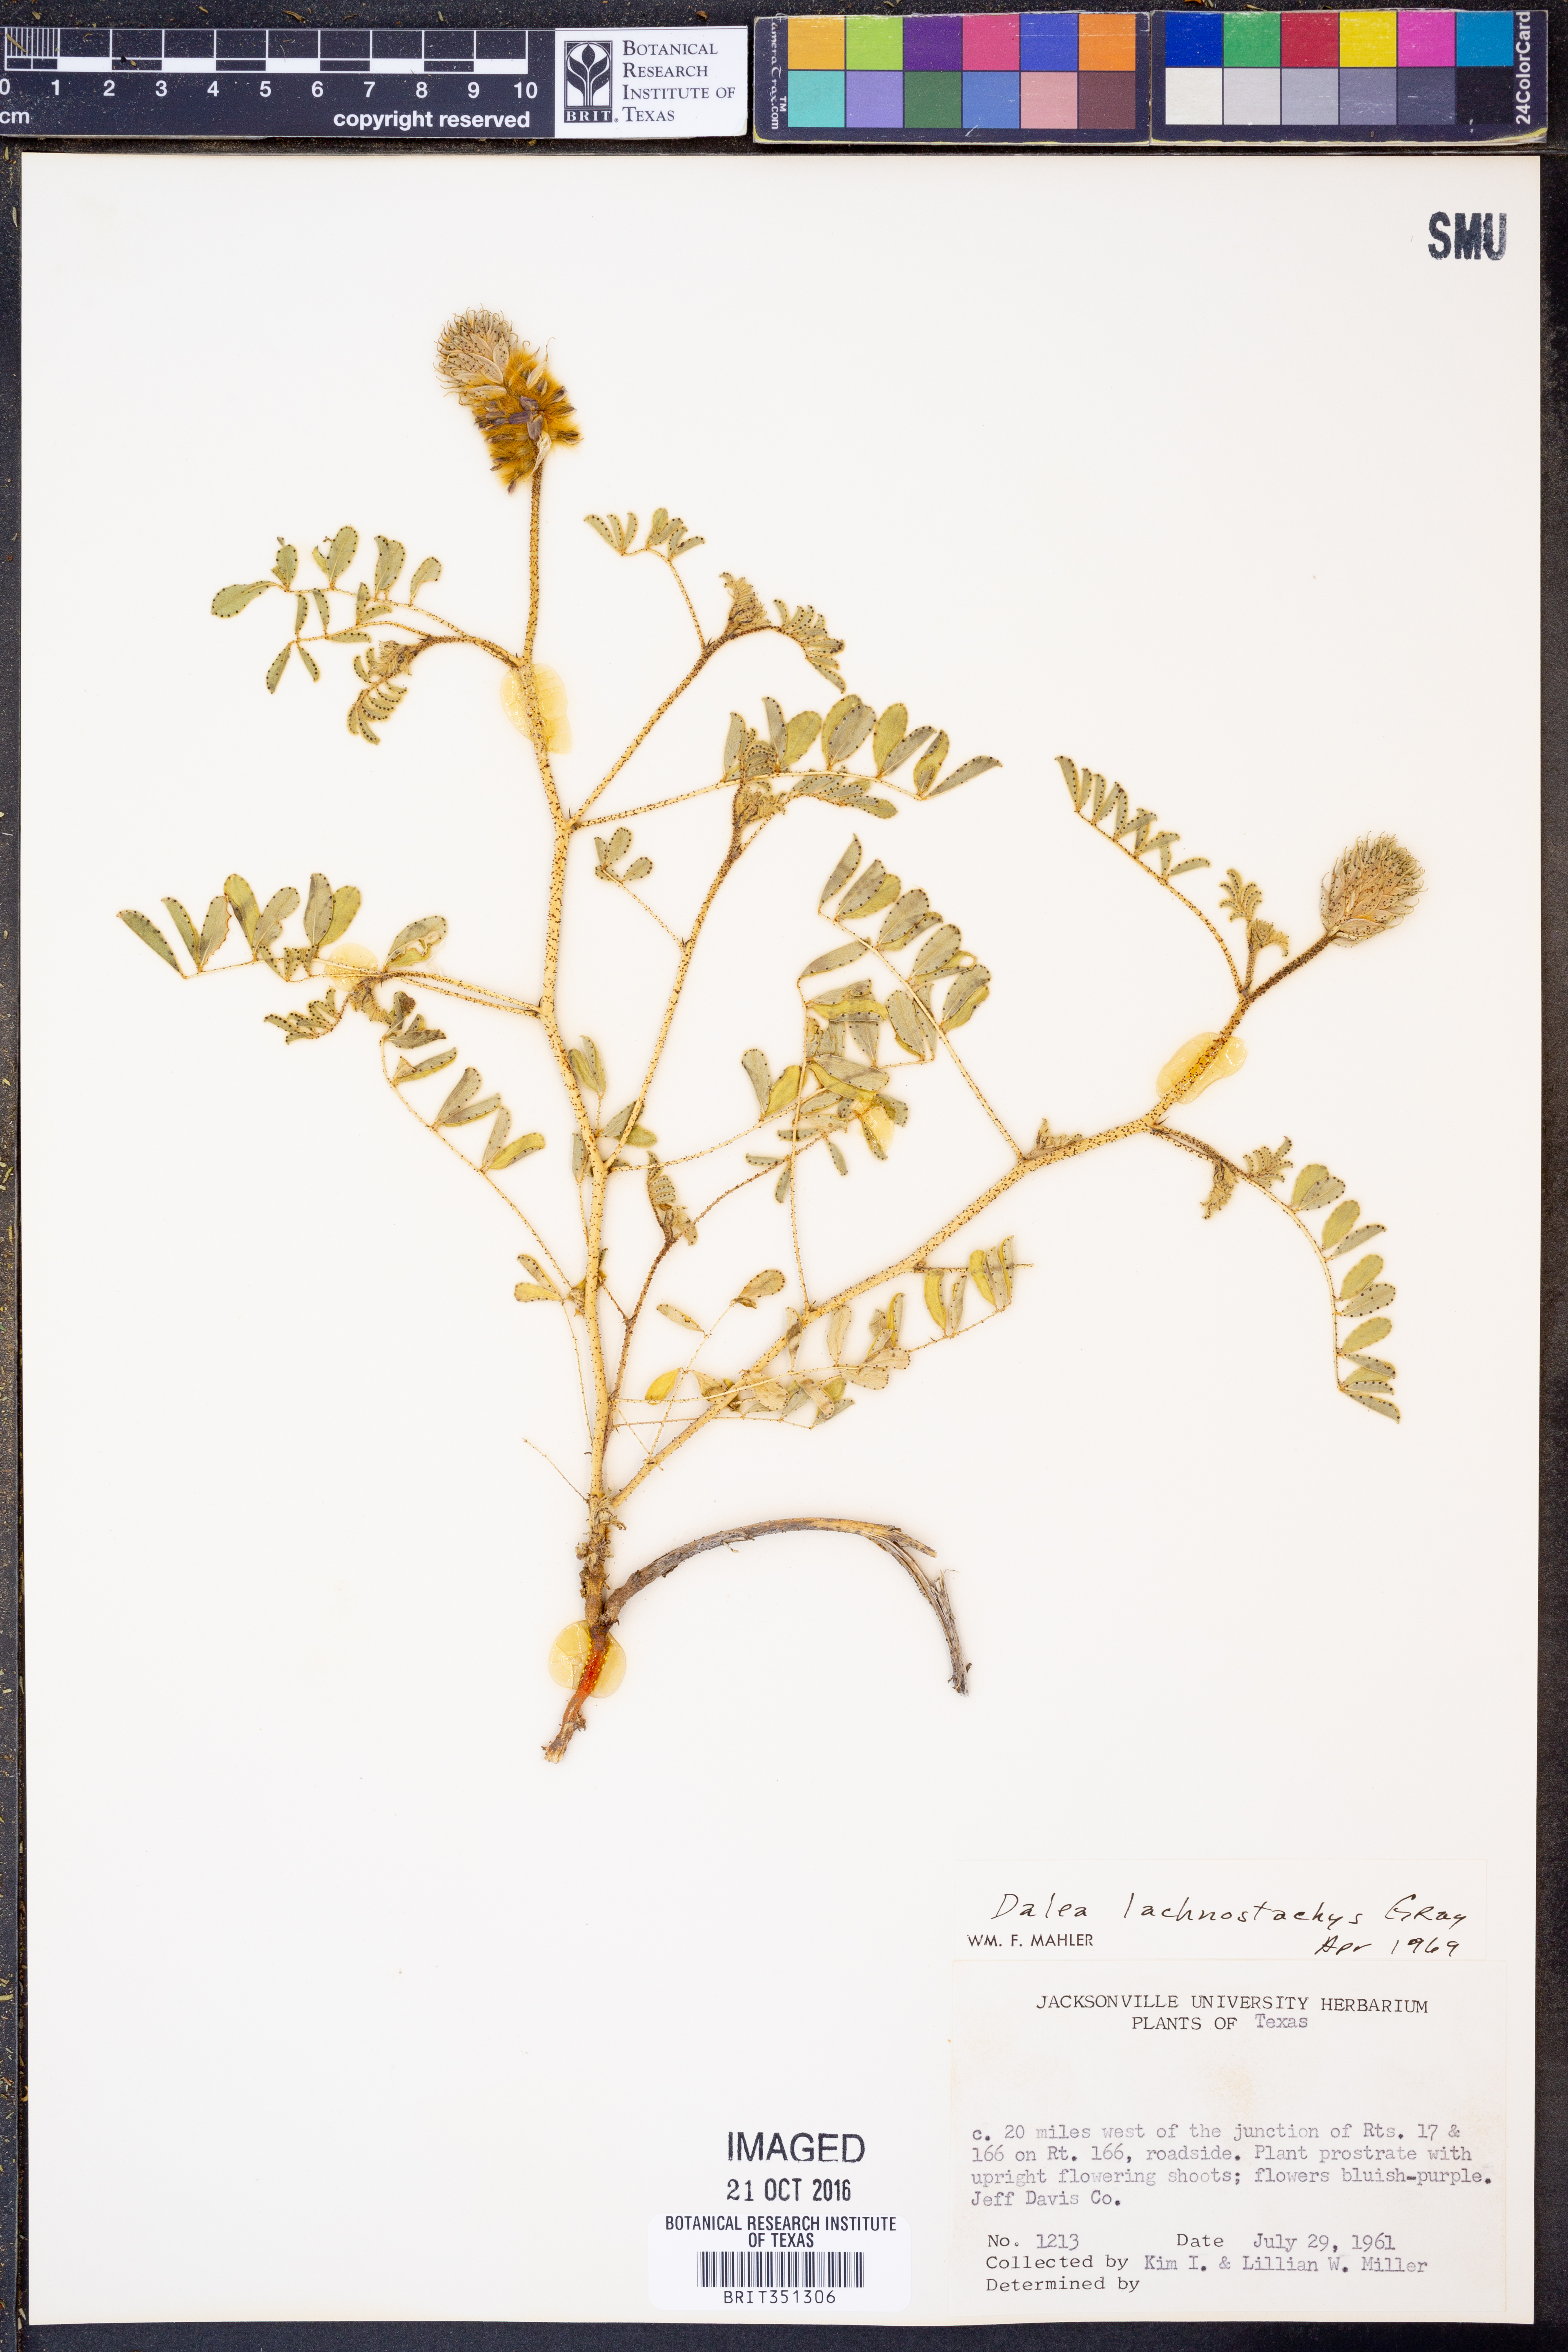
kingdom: Plantae
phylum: Tracheophyta
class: Magnoliopsida
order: Fabales
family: Fabaceae
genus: Dalea
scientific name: Dalea lachnostachys
